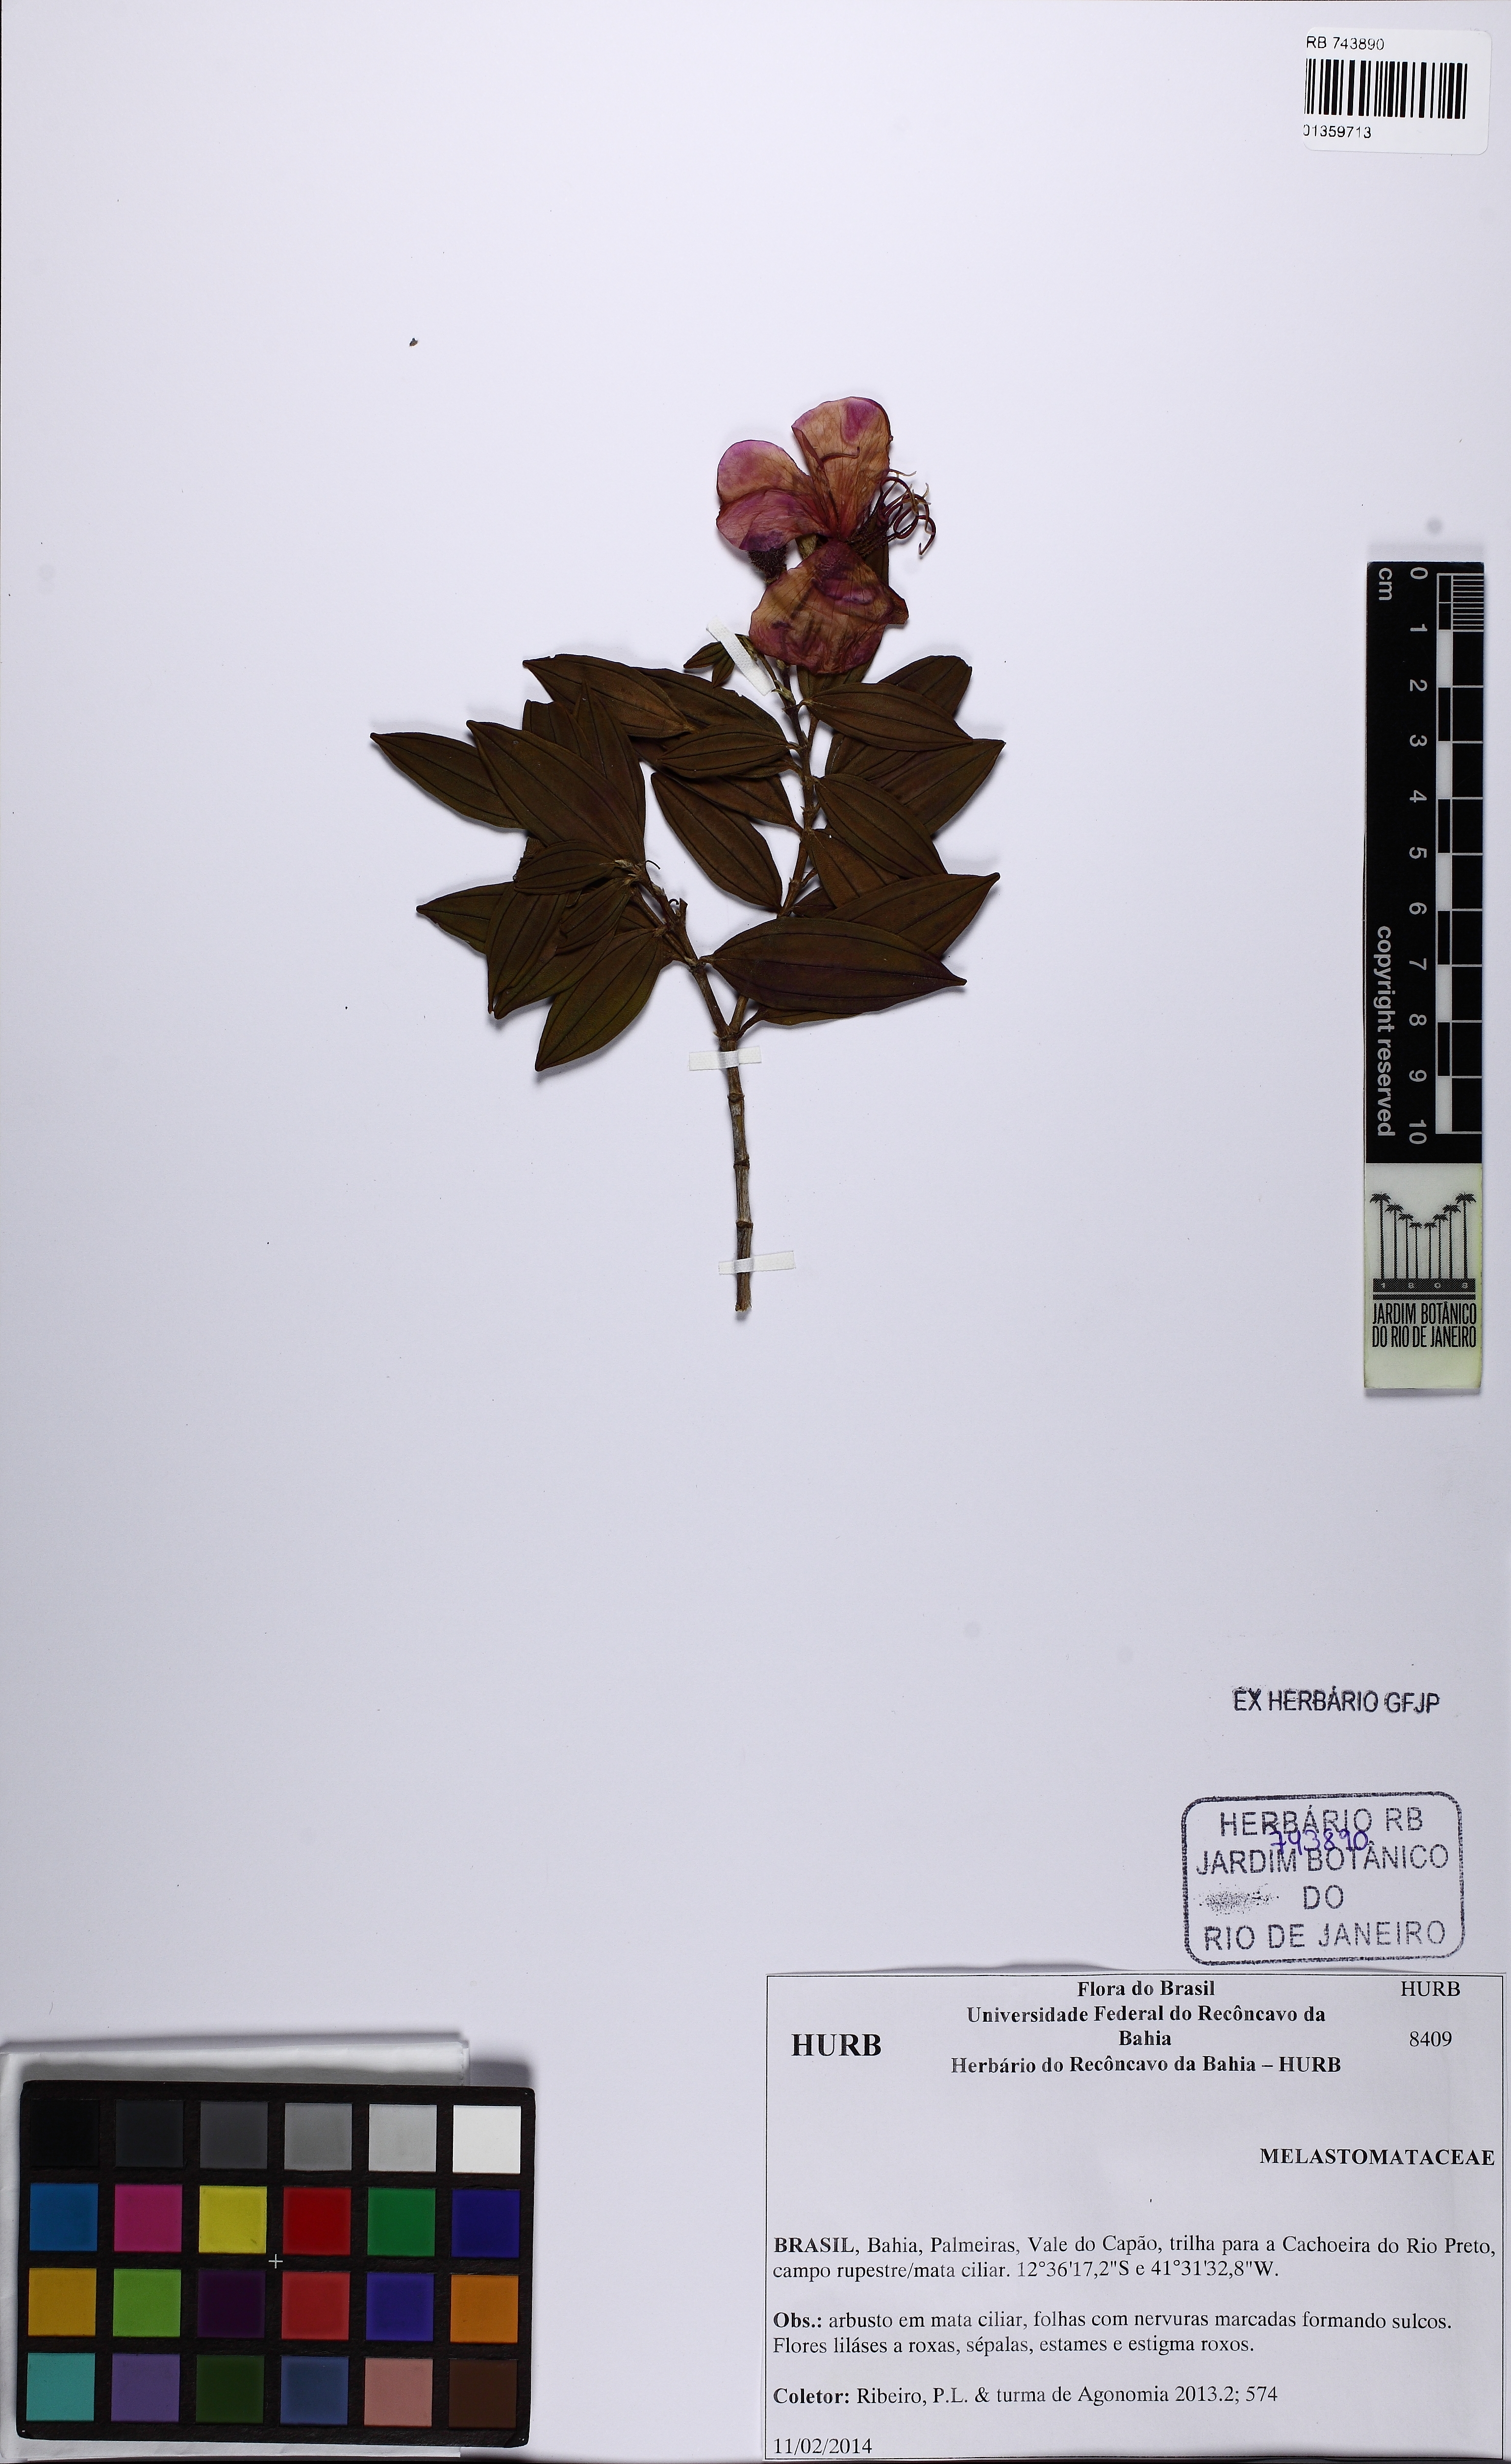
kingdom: Plantae
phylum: Tracheophyta
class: Magnoliopsida
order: Myrtales
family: Melastomataceae
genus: Pleroma
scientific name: Pleroma
